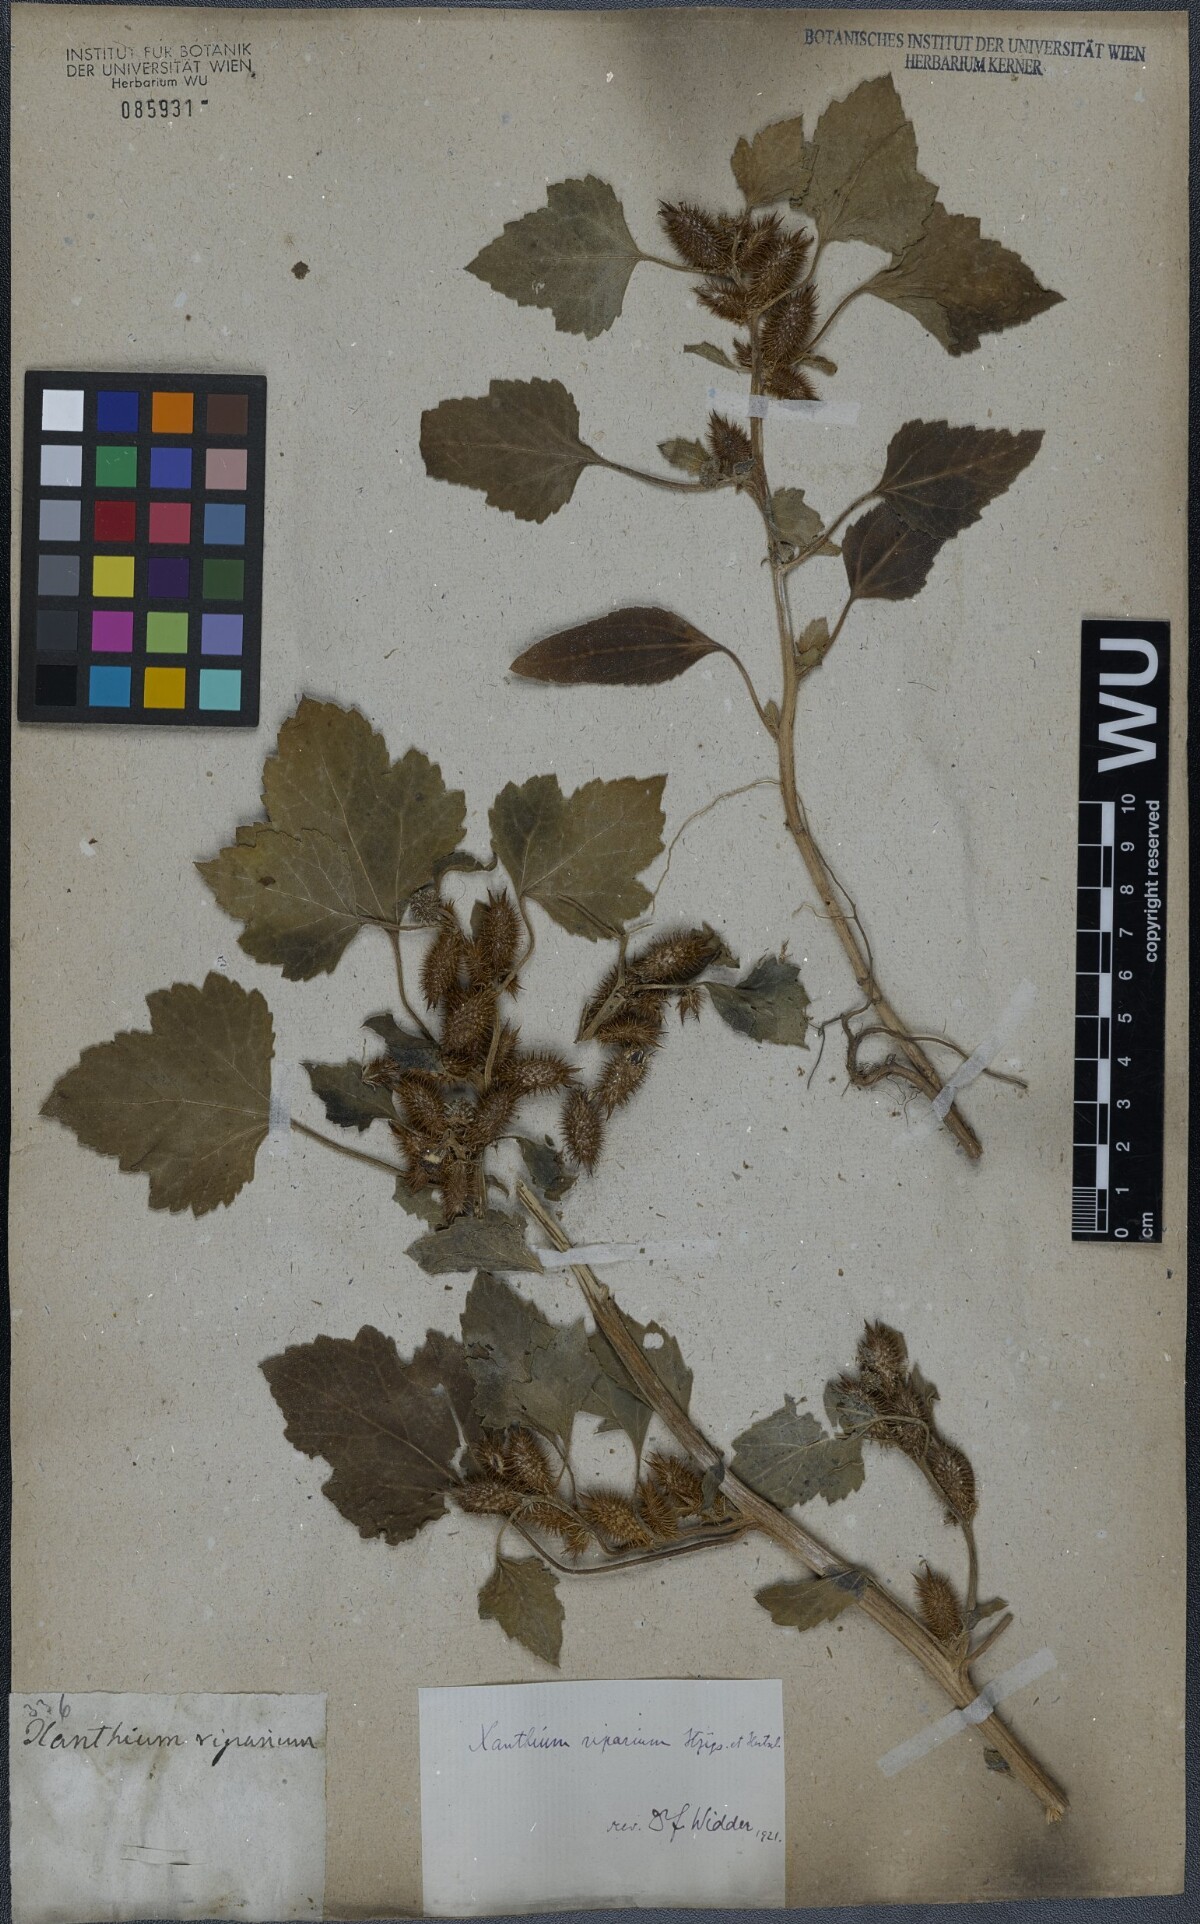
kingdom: Plantae
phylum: Tracheophyta
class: Magnoliopsida
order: Asterales
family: Asteraceae
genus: Xanthium
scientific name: Xanthium orientale
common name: Californian burr
